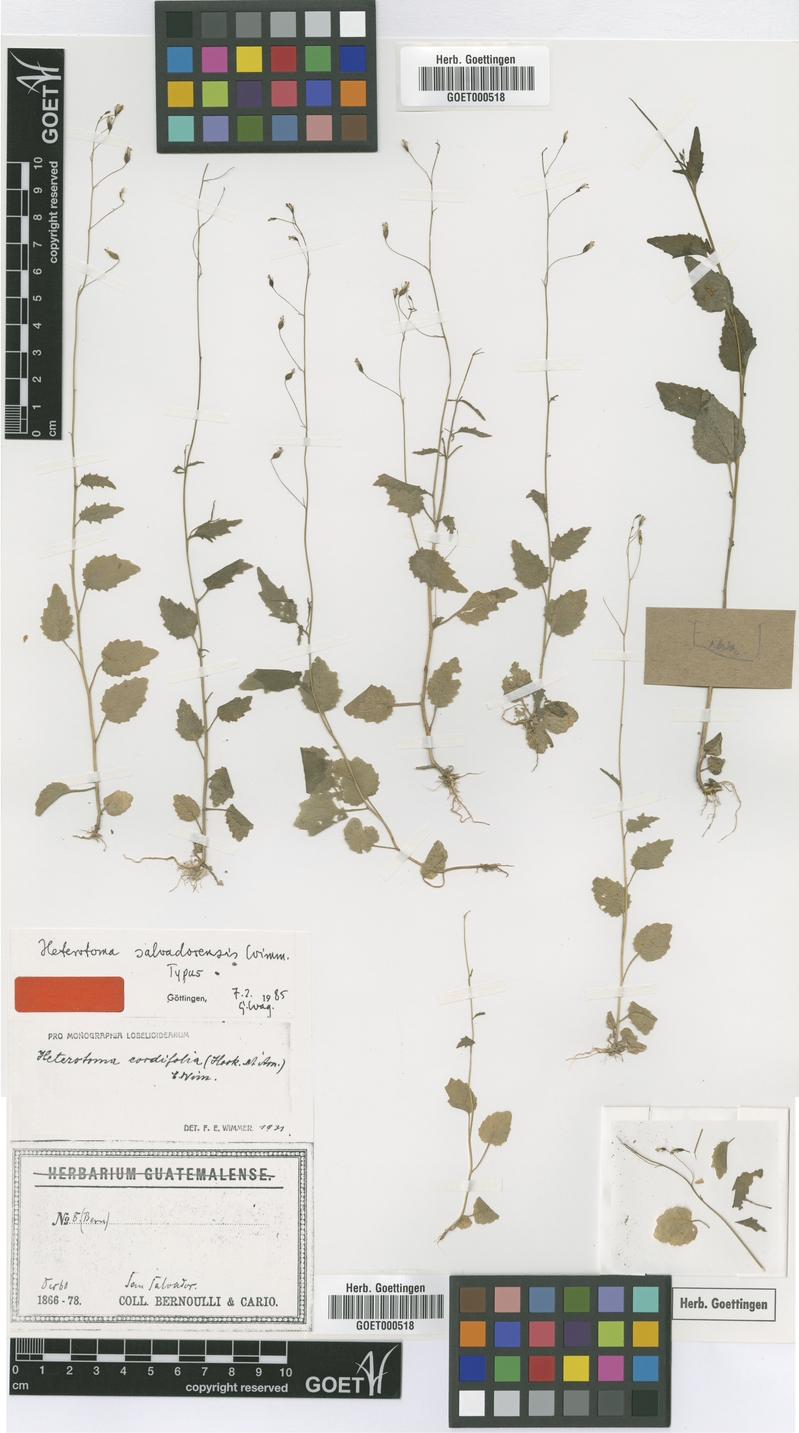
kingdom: Plantae
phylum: Tracheophyta
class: Magnoliopsida
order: Asterales
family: Campanulaceae
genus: Lobelia
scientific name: Lobelia cordifolia
